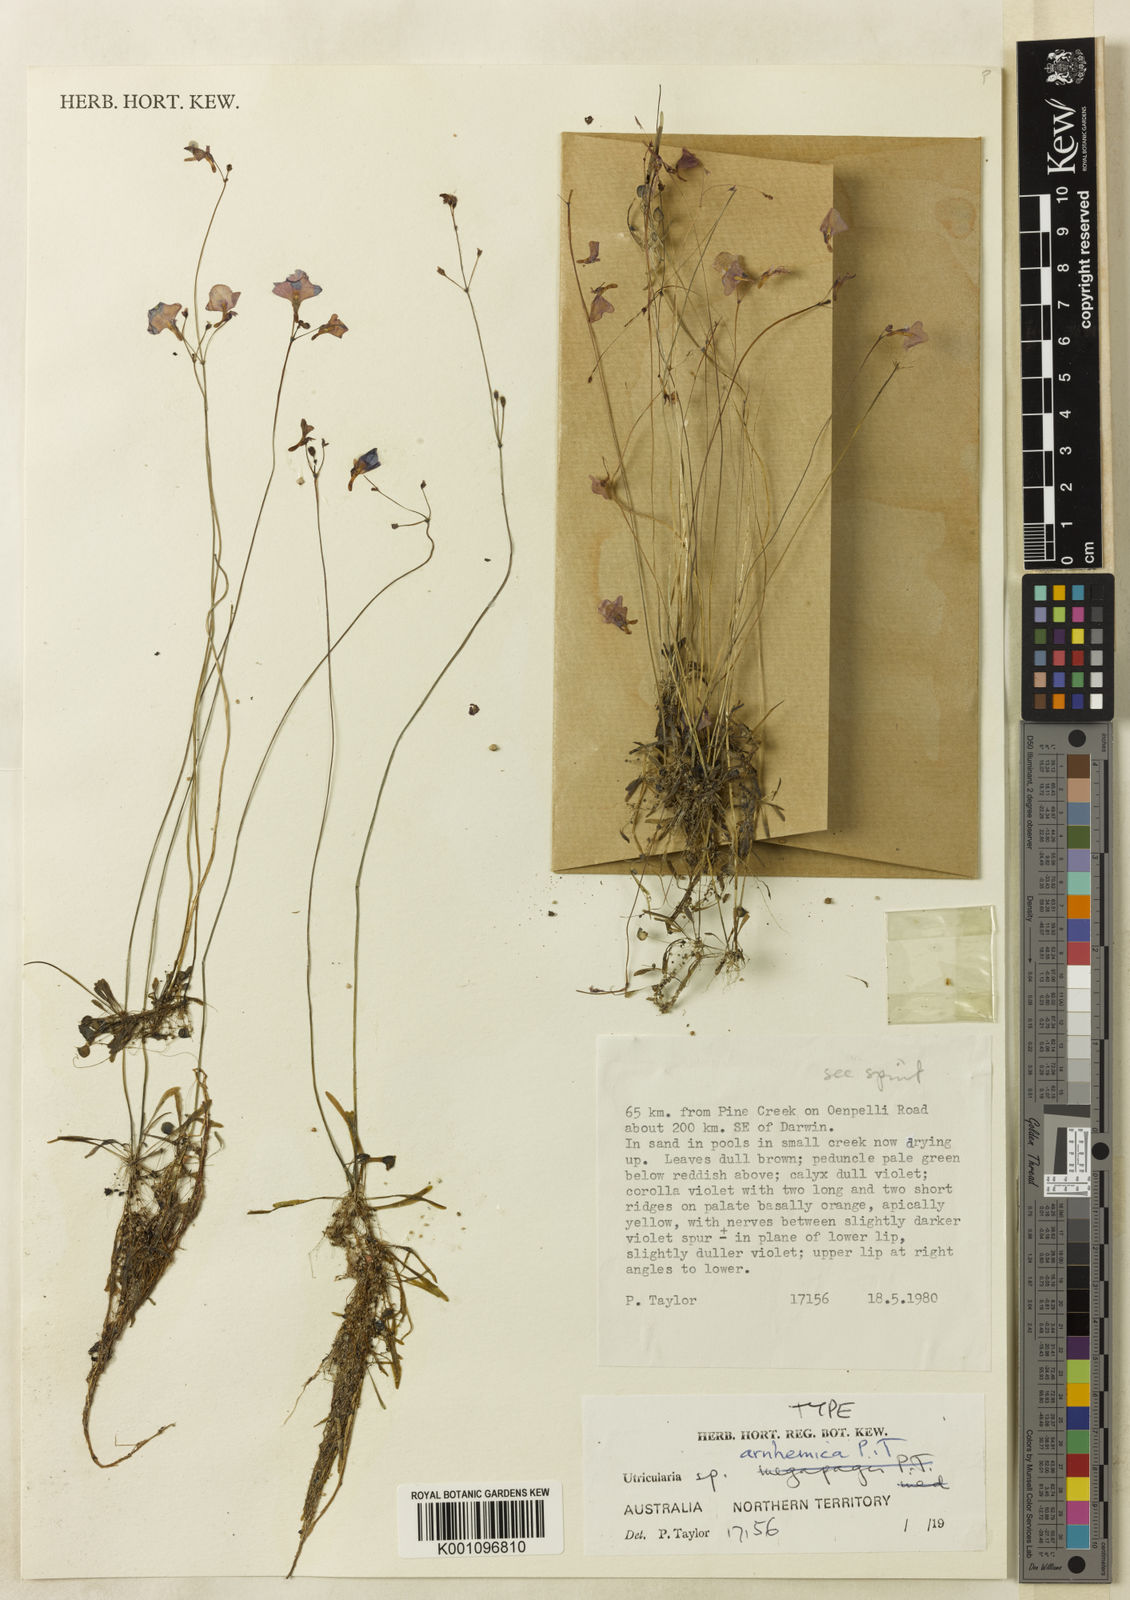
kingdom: Plantae
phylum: Tracheophyta
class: Magnoliopsida
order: Lamiales
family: Lentibulariaceae
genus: Utricularia
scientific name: Utricularia arnhemica
